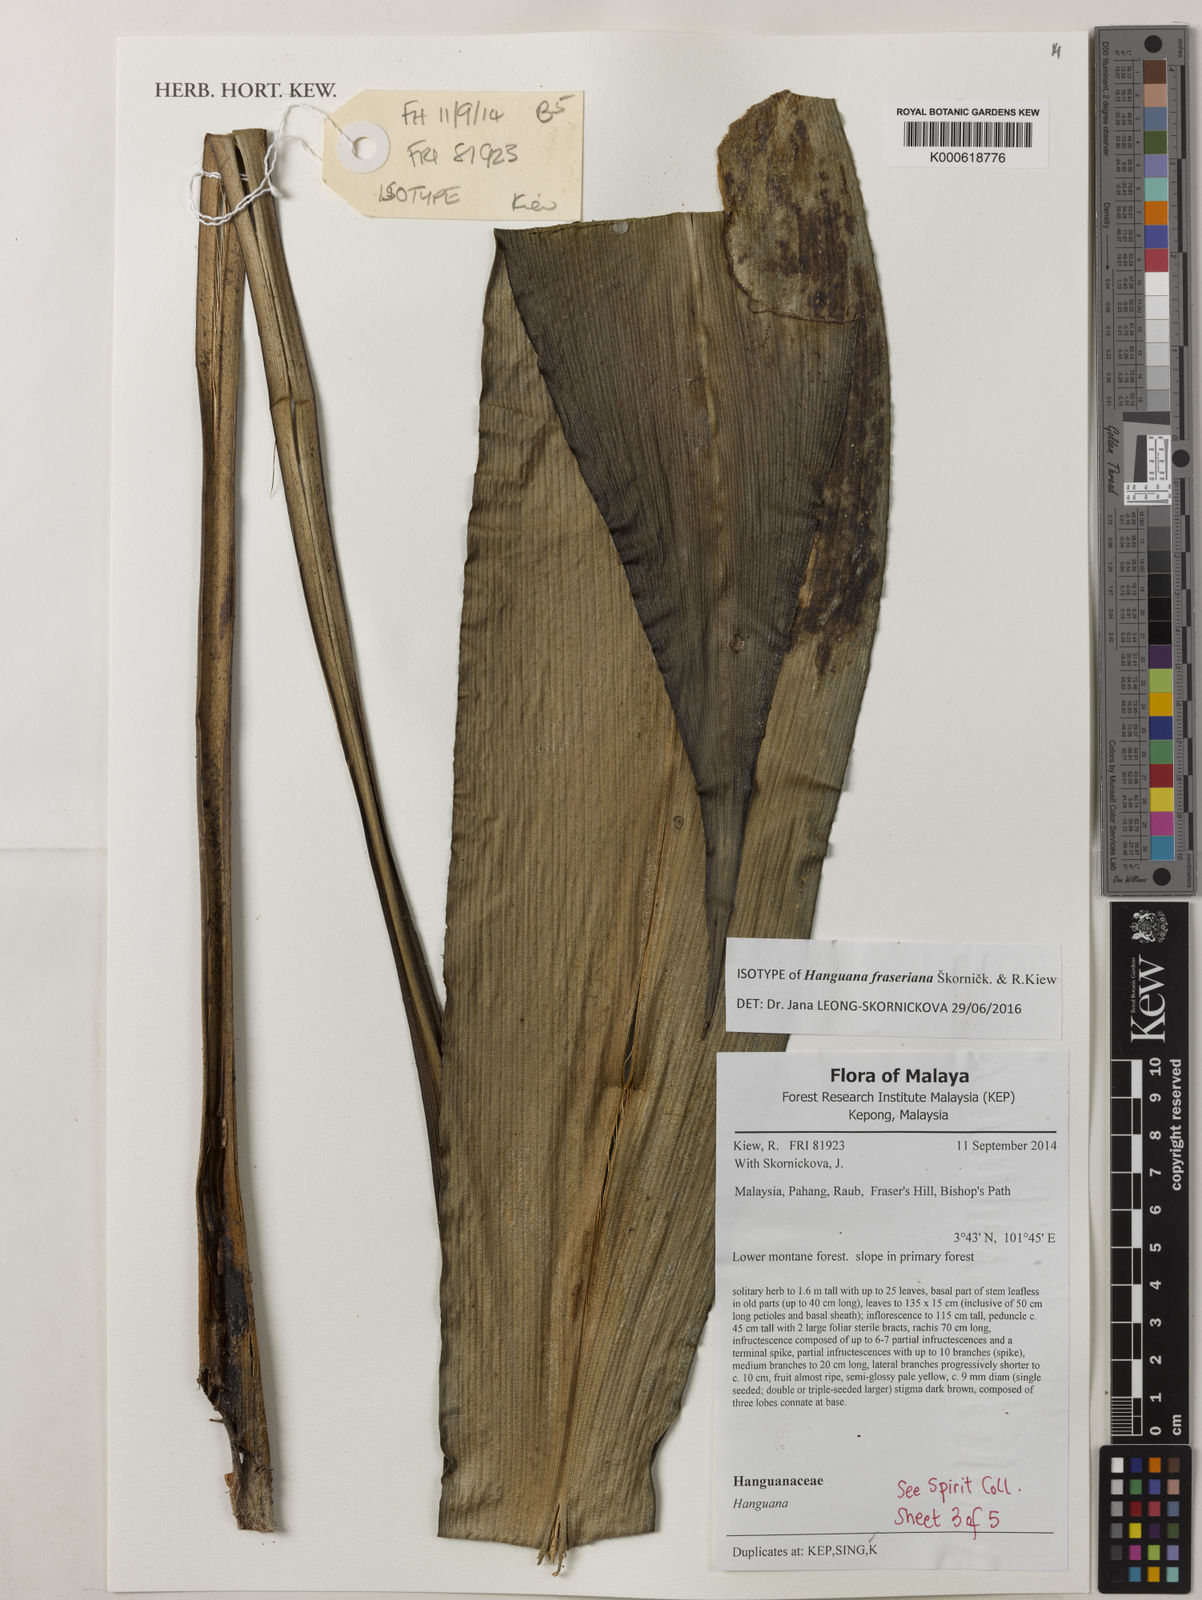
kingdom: Plantae
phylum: Tracheophyta
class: Liliopsida
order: Commelinales
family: Hanguanaceae
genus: Hanguana
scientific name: Hanguana fraseriana
